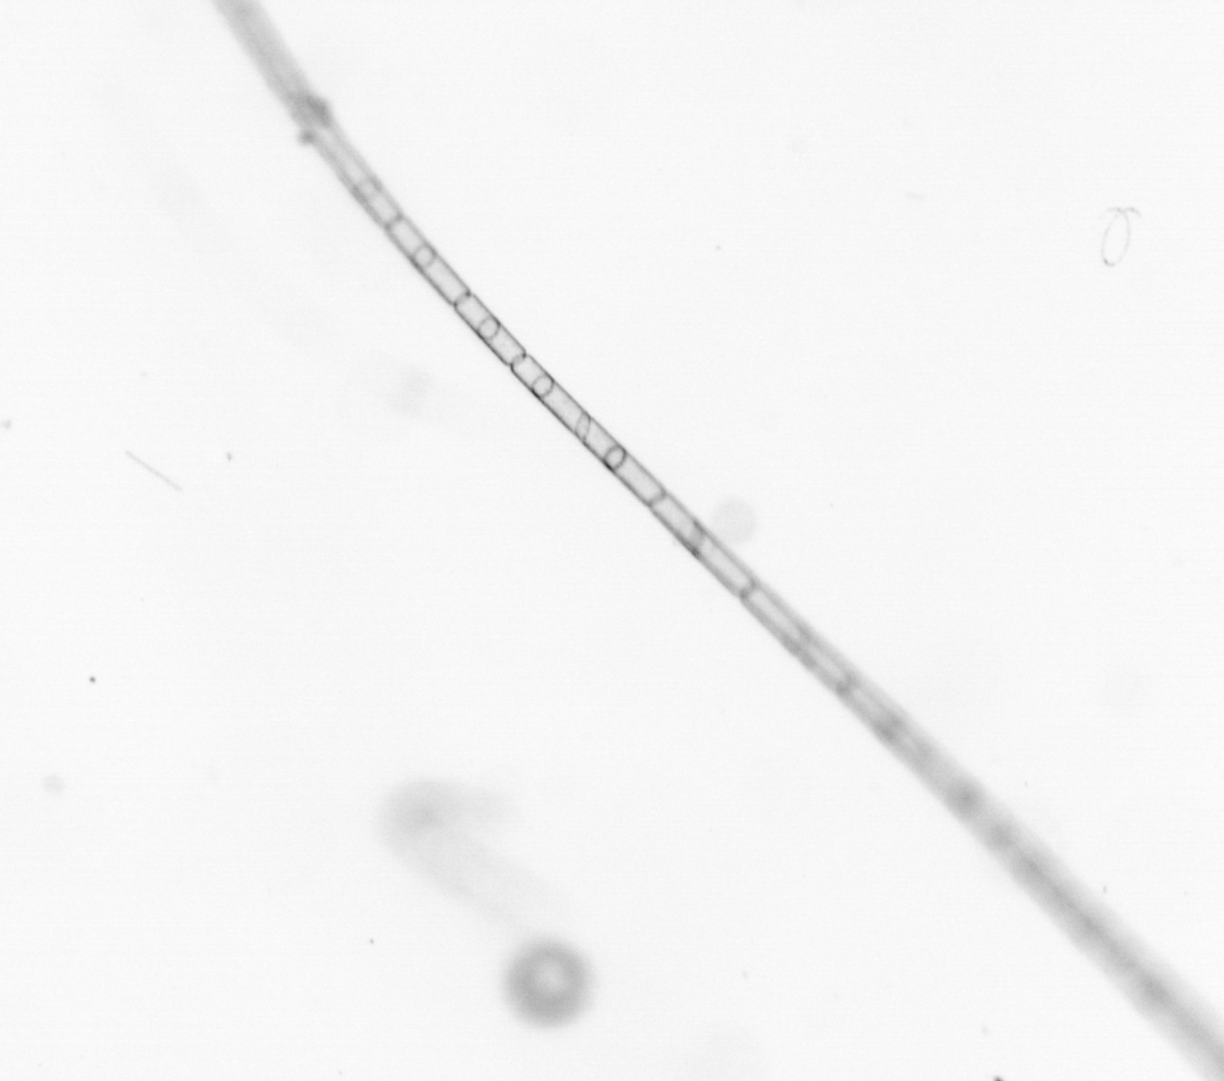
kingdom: Chromista
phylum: Ochrophyta
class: Bacillariophyceae
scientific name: Bacillariophyceae
